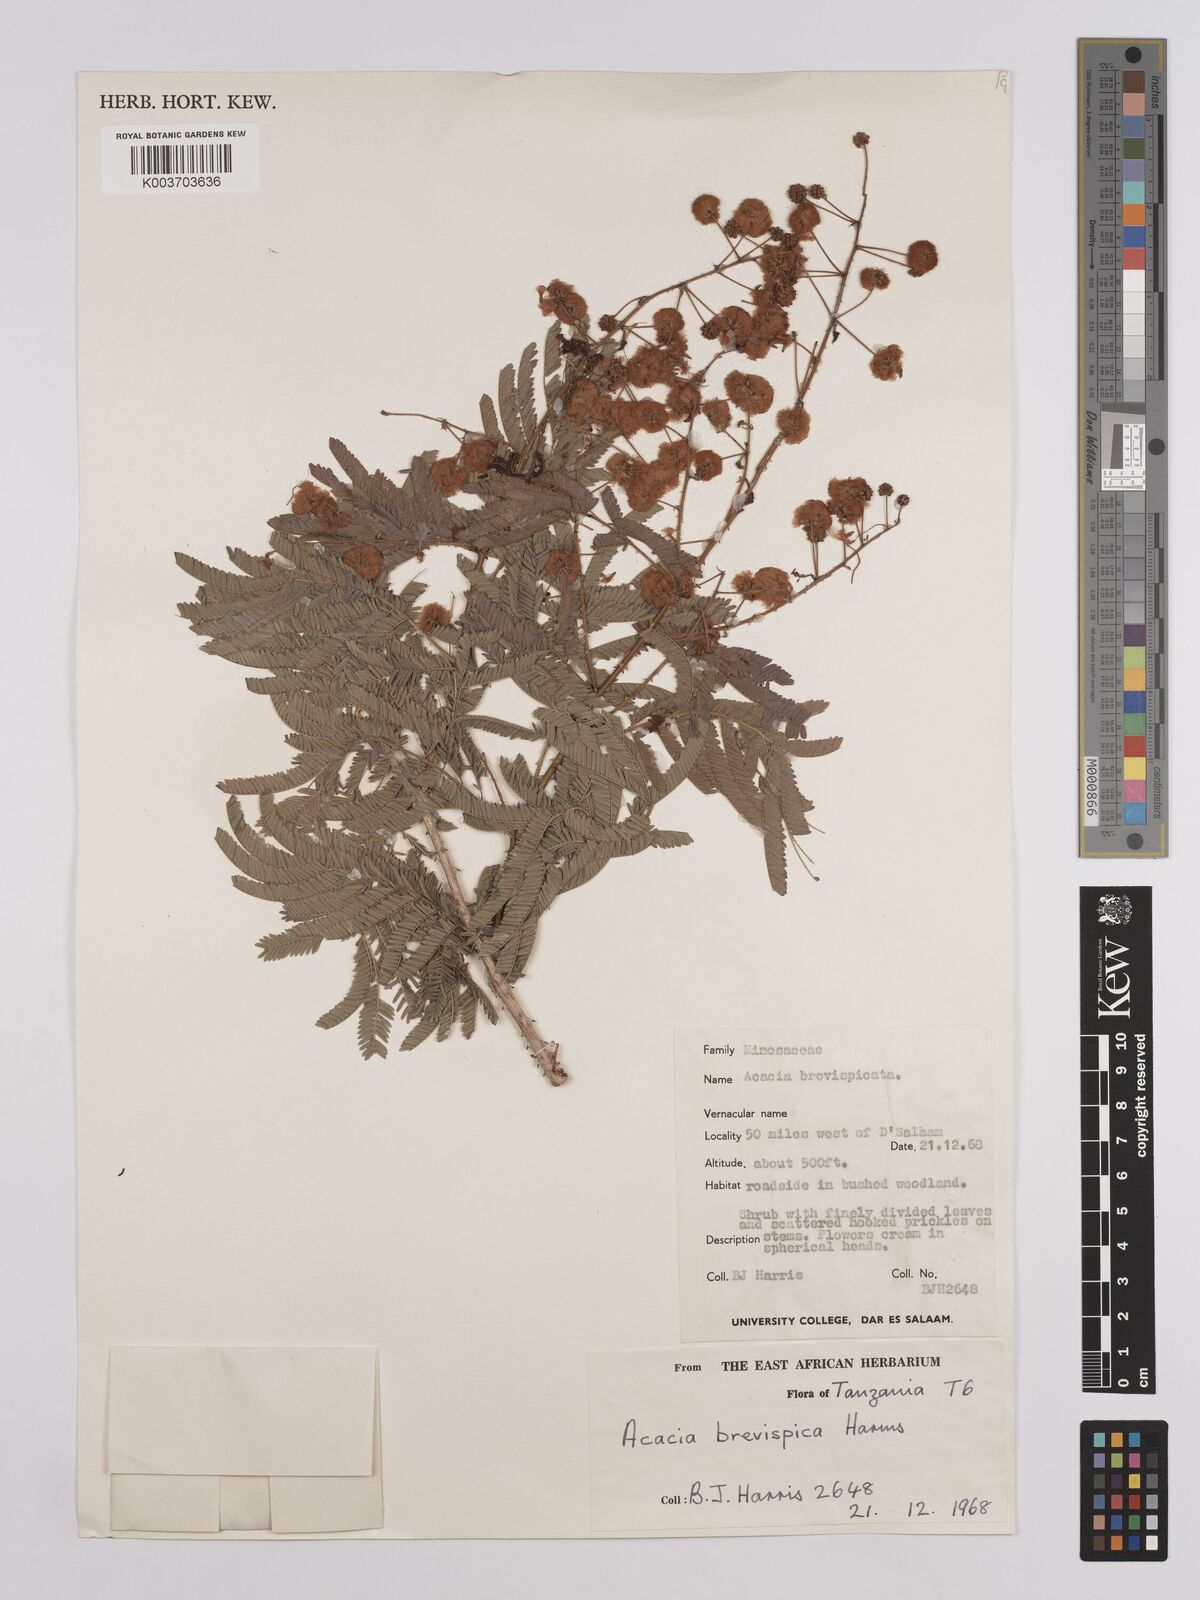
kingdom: Plantae
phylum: Tracheophyta
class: Magnoliopsida
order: Fabales
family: Fabaceae
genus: Senegalia
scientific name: Senegalia brevispica
